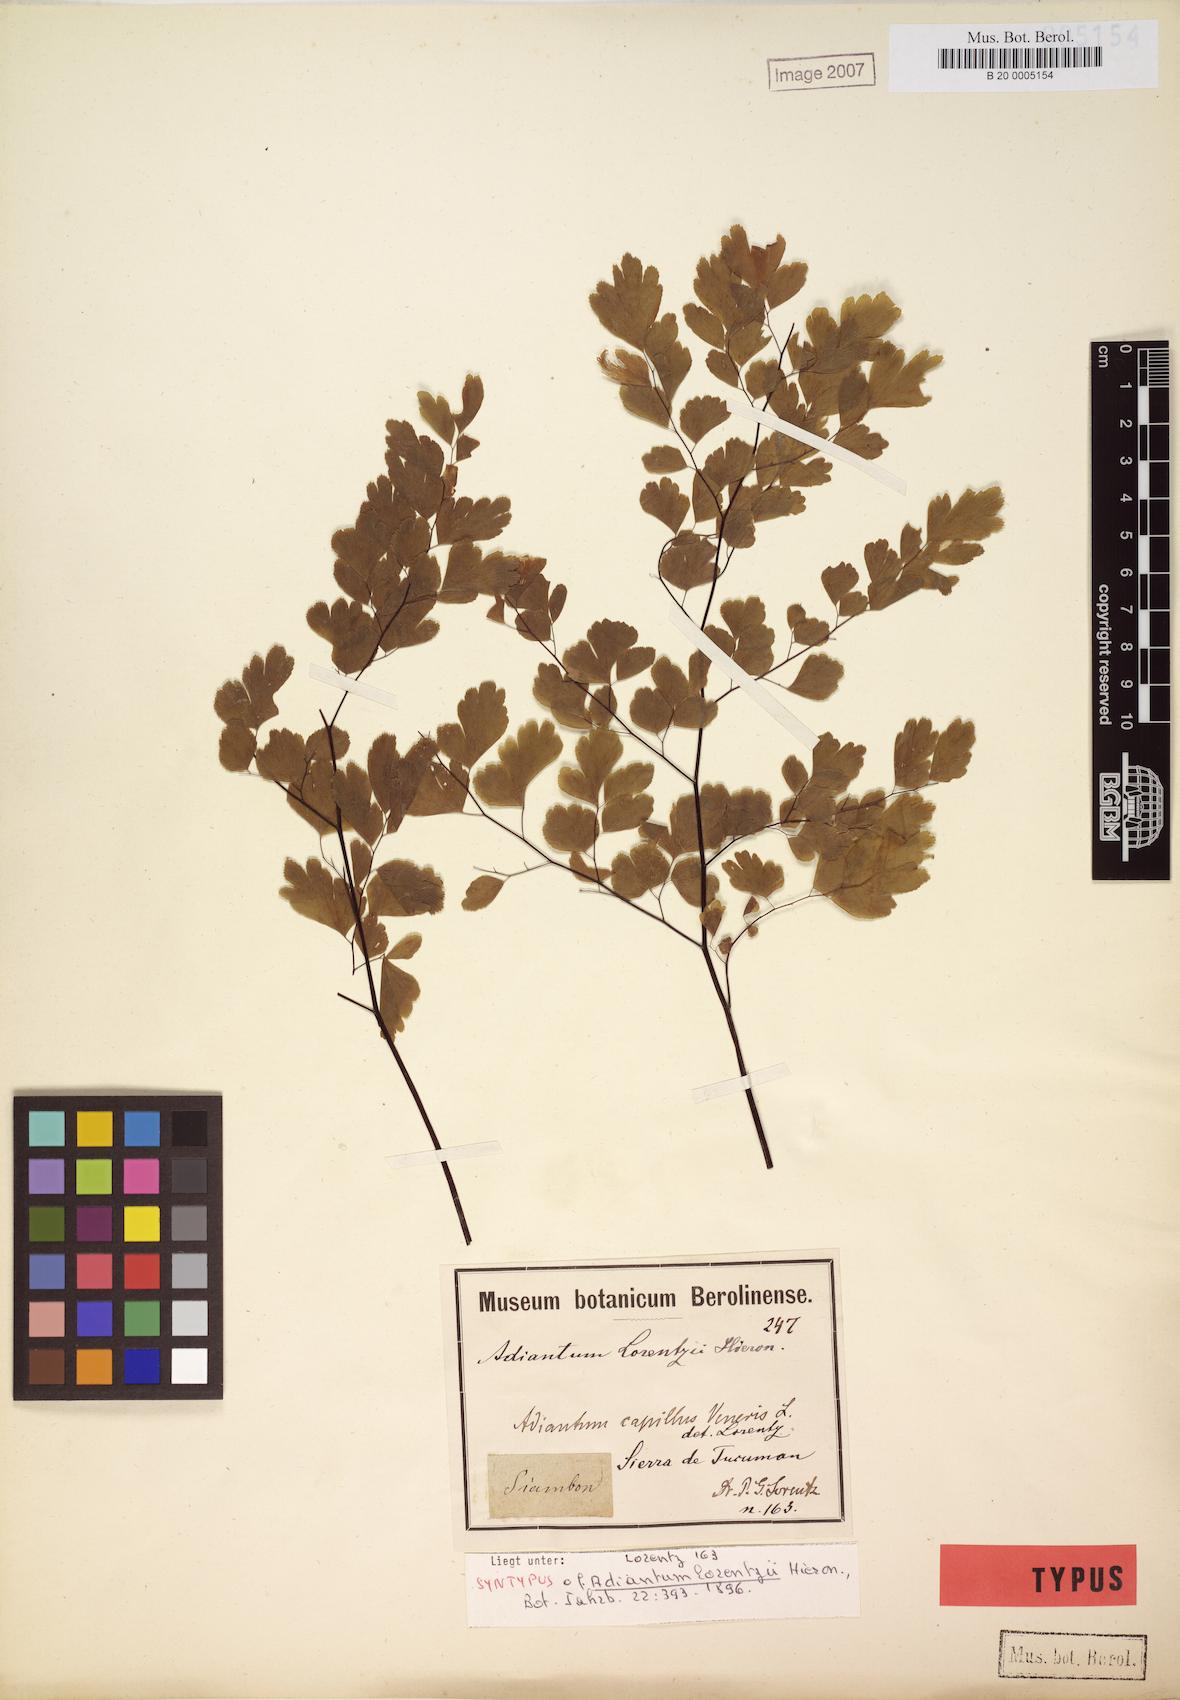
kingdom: Plantae
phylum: Tracheophyta
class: Polypodiopsida
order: Polypodiales
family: Pteridaceae
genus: Adiantum
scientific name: Adiantum lorentzii
